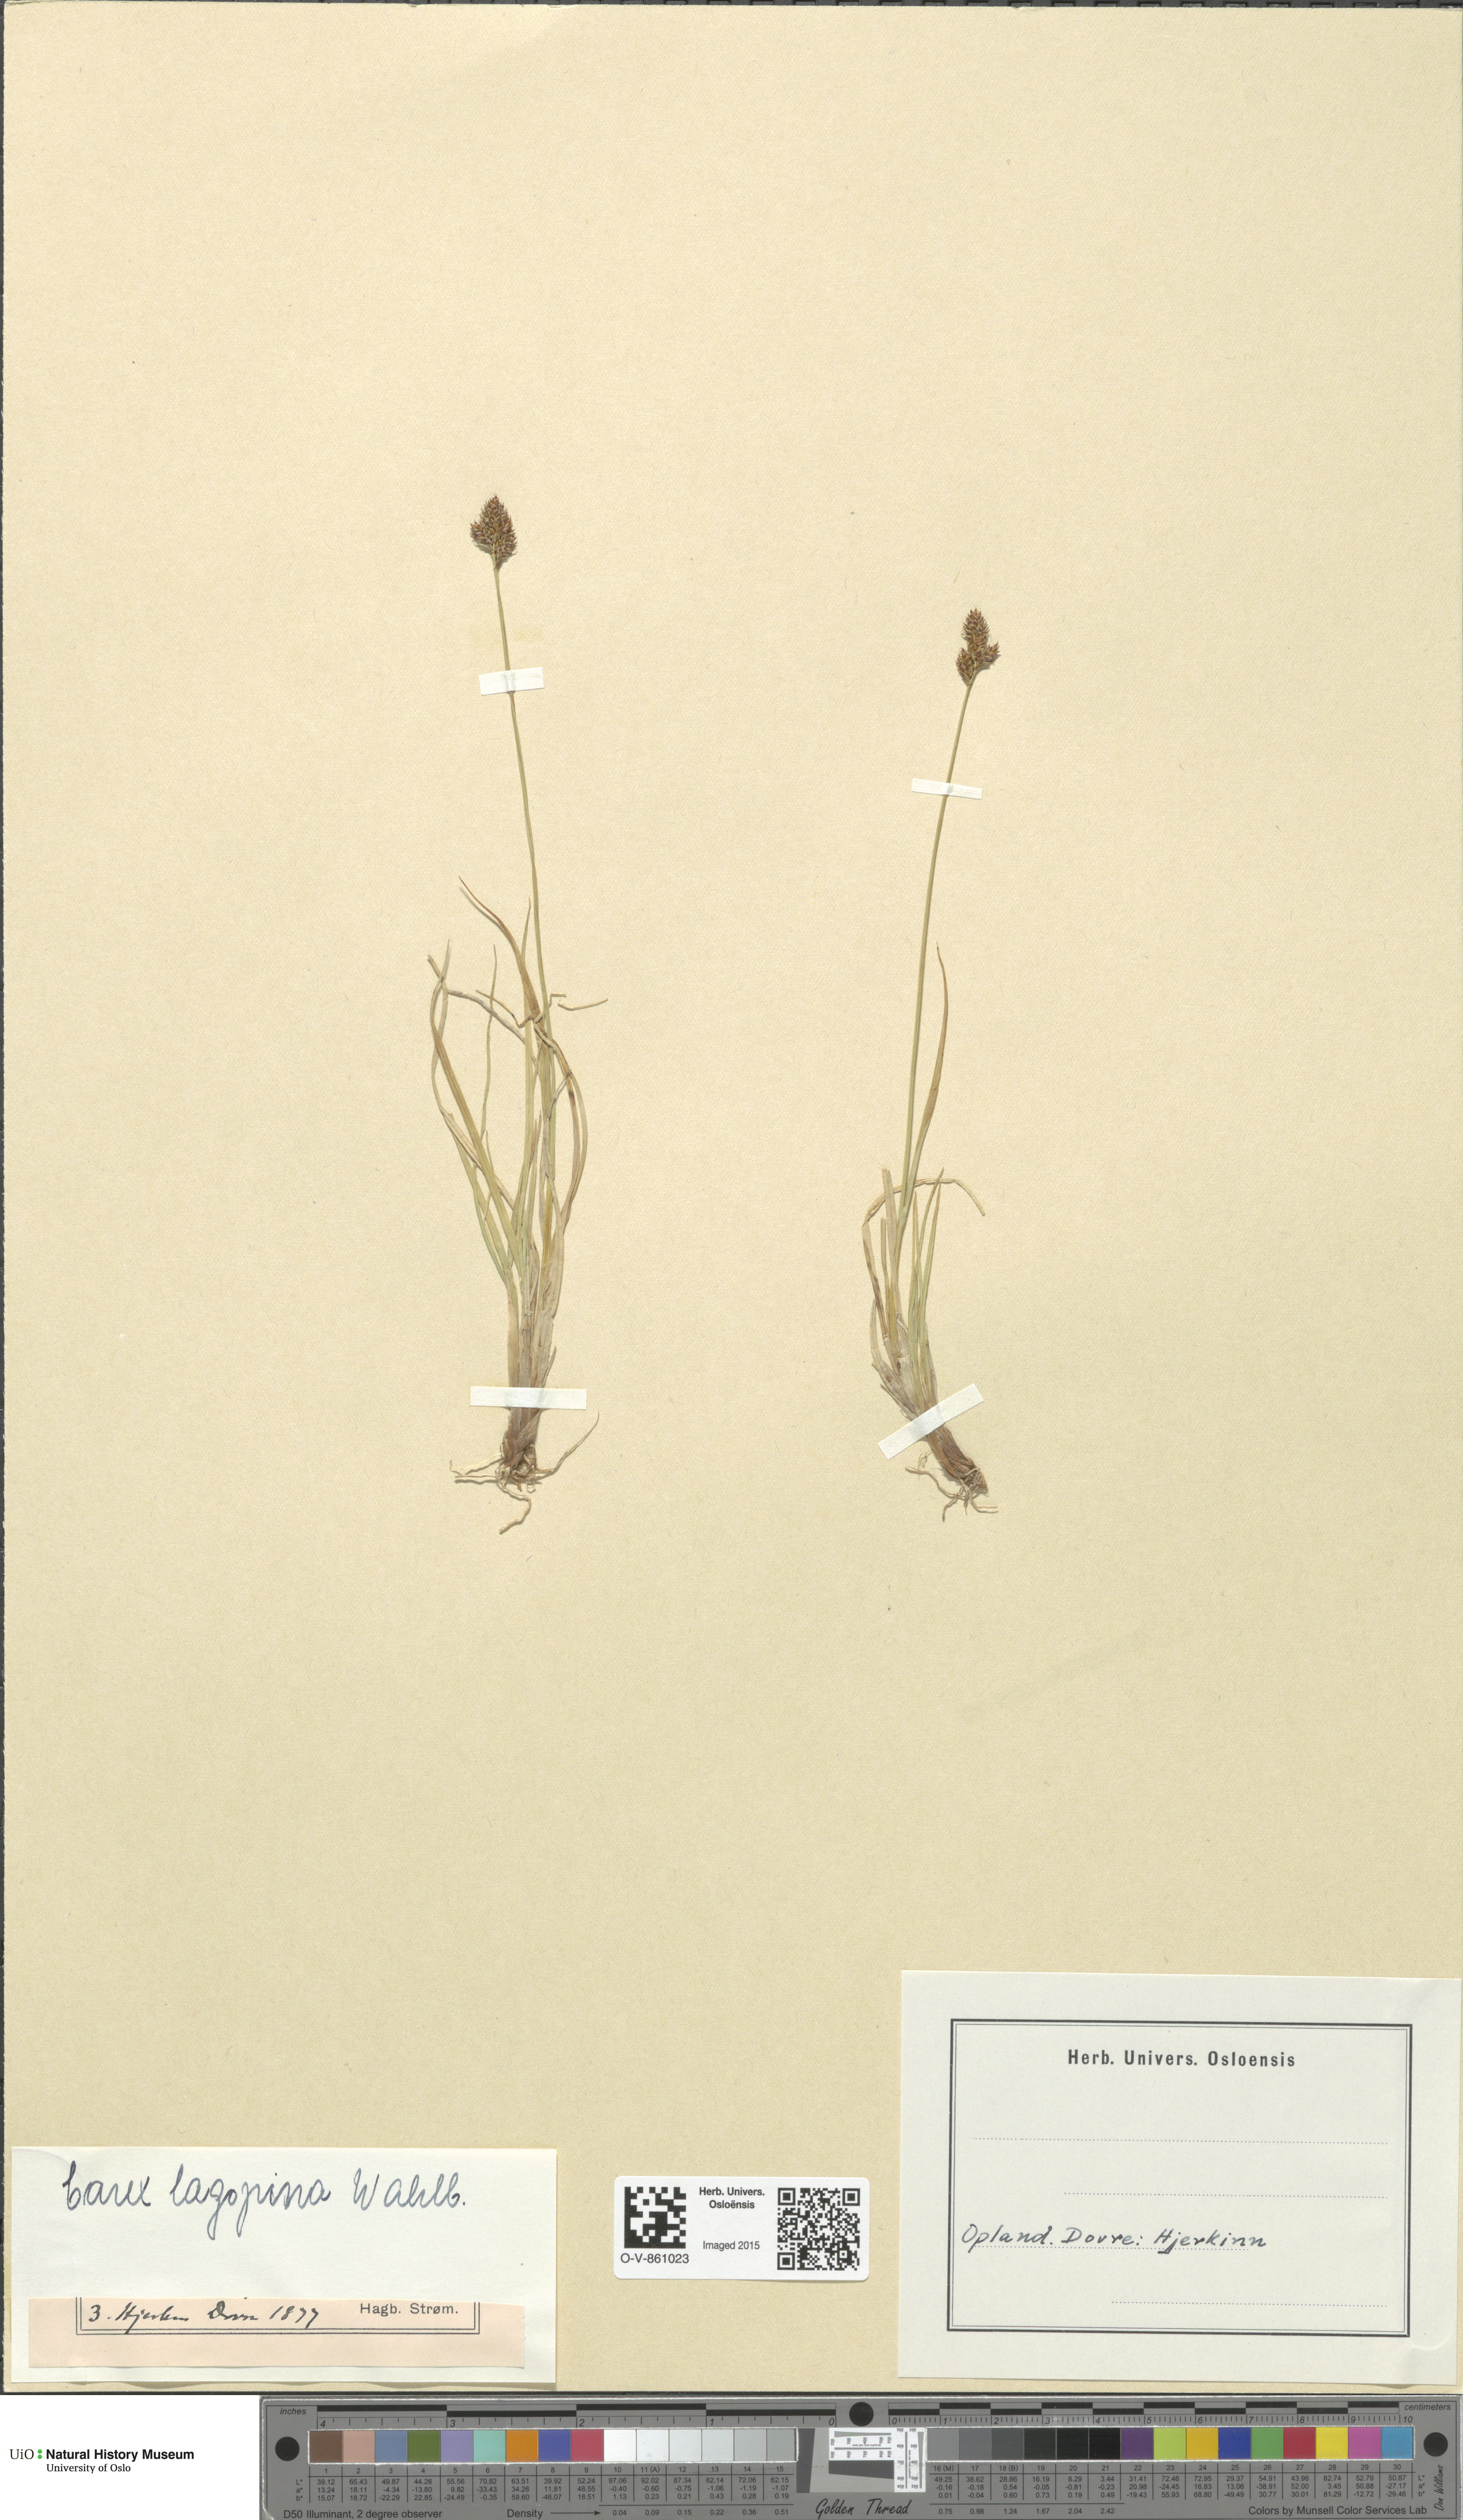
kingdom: Plantae
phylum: Tracheophyta
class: Liliopsida
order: Poales
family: Cyperaceae
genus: Carex
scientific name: Carex lachenalii
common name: Hare's-foot sedge
